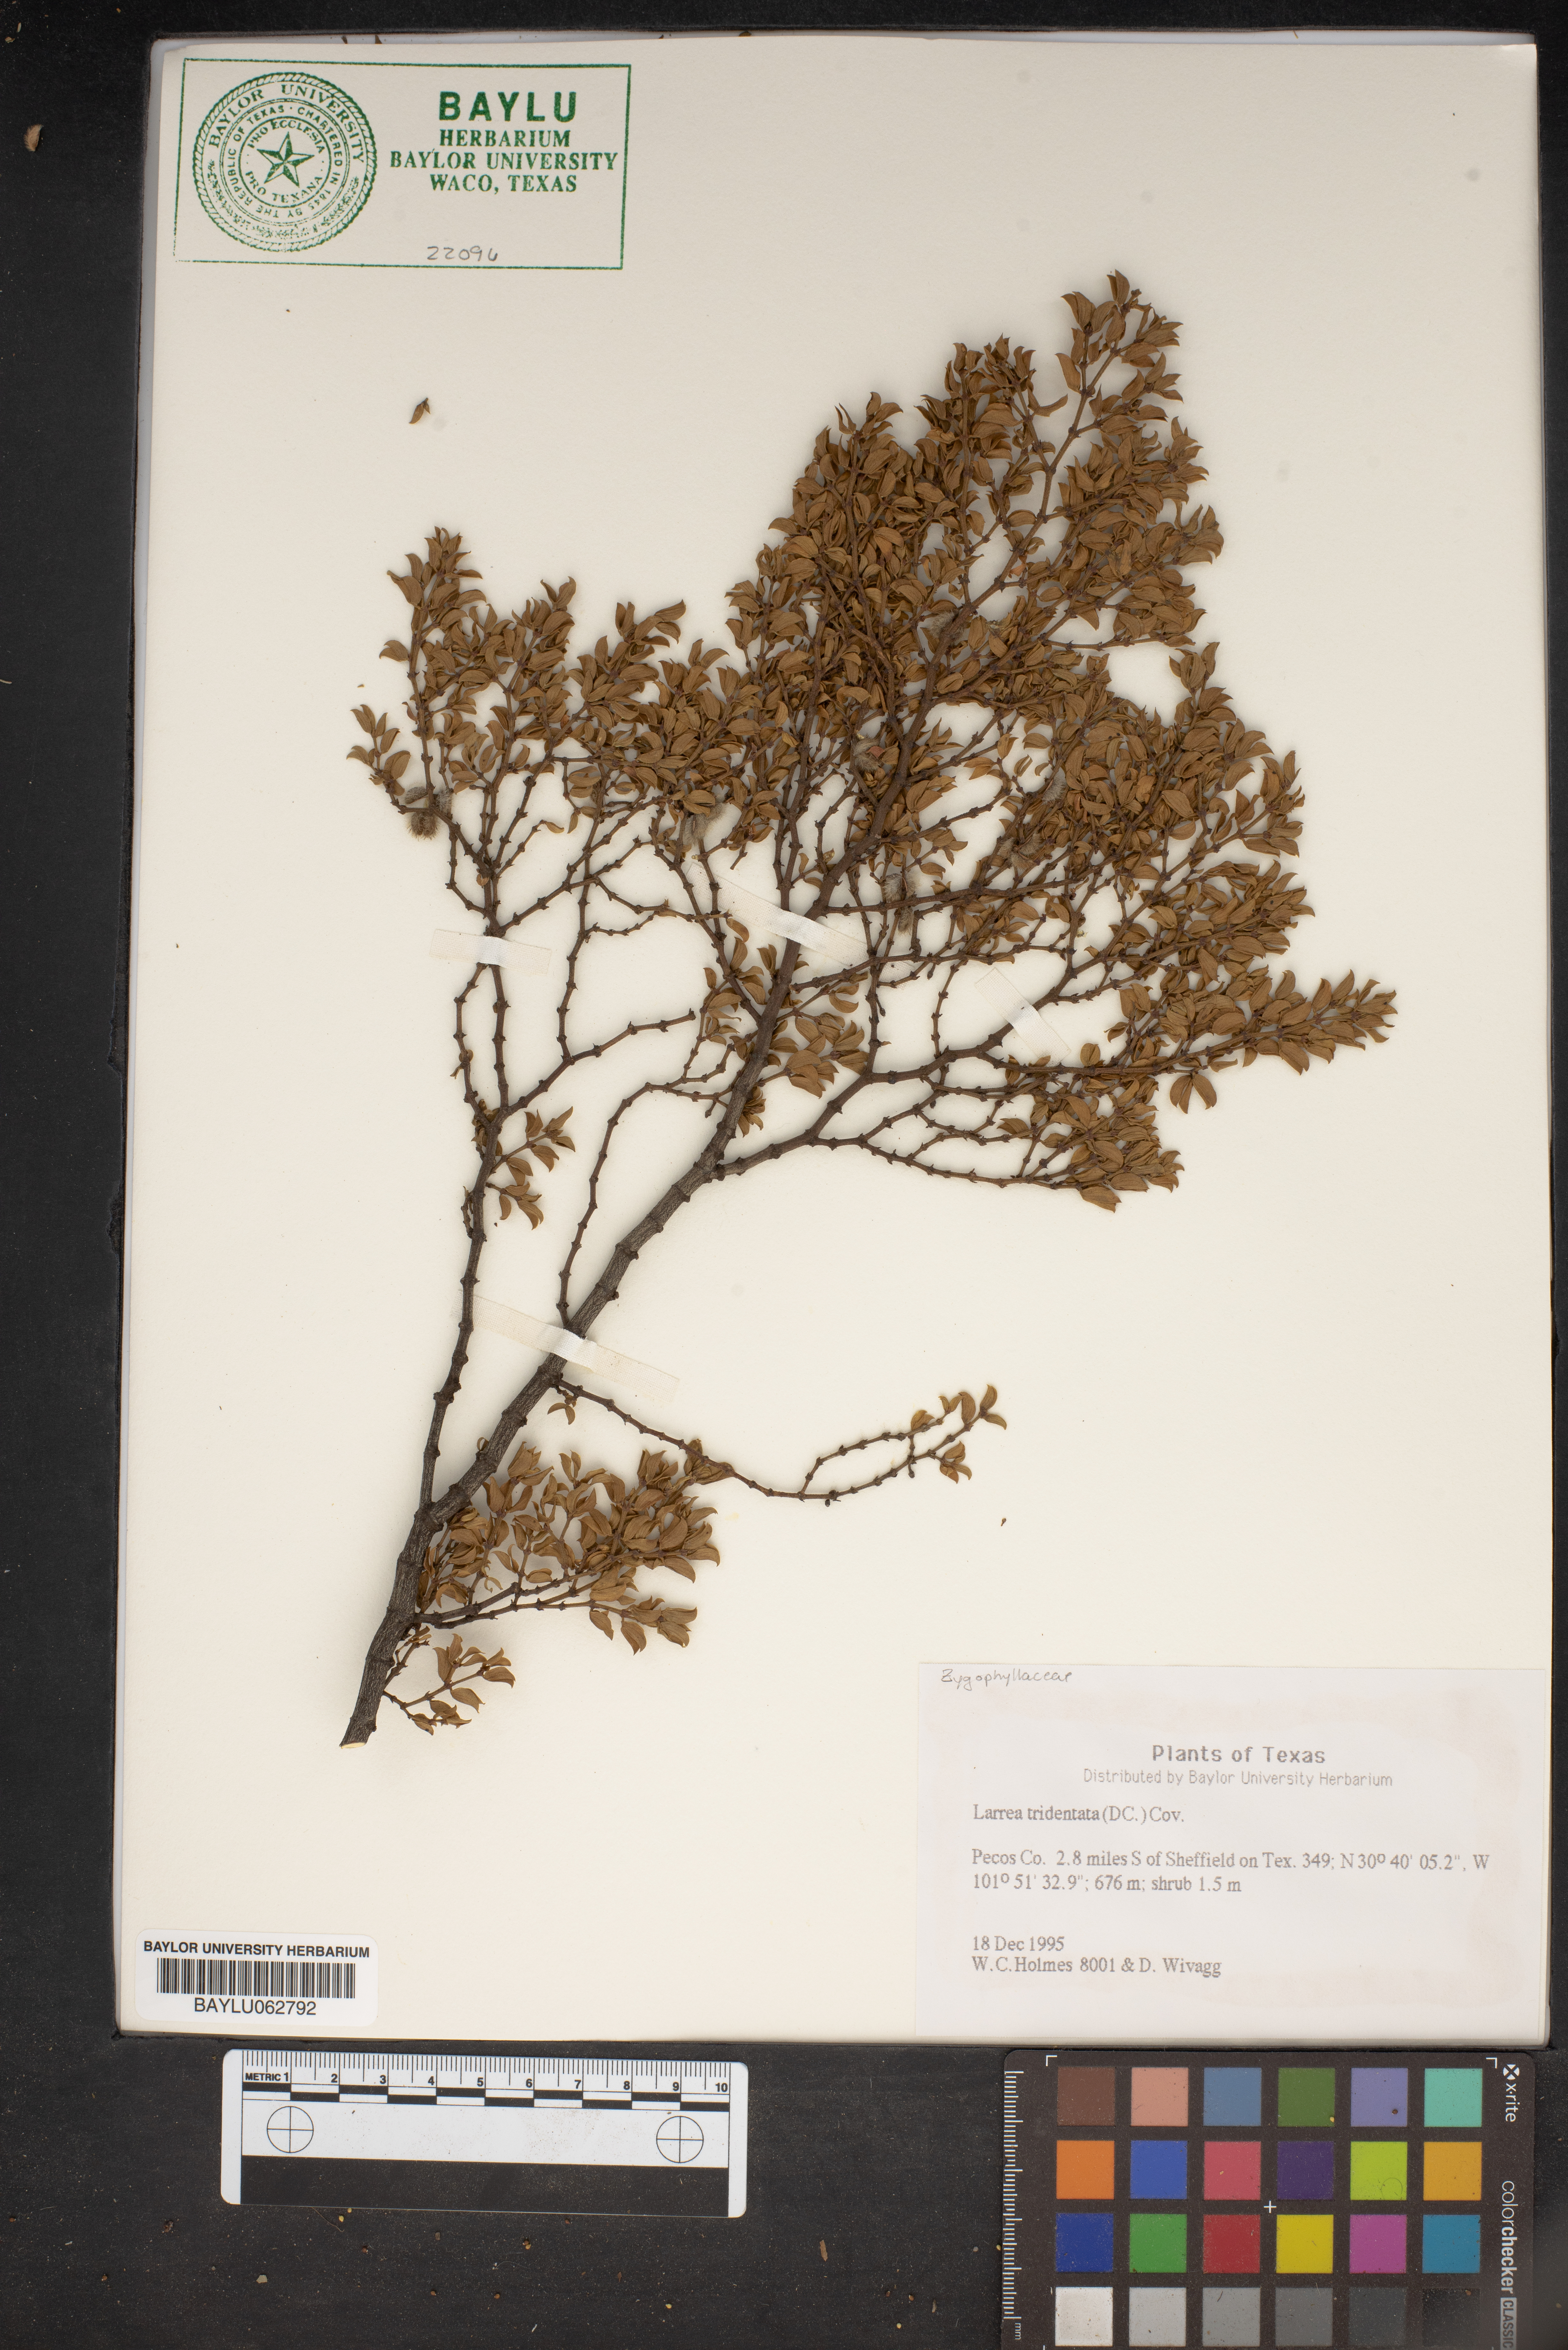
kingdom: Plantae
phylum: Tracheophyta
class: Magnoliopsida
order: Zygophyllales
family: Zygophyllaceae
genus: Larrea
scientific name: Larrea tridentata
